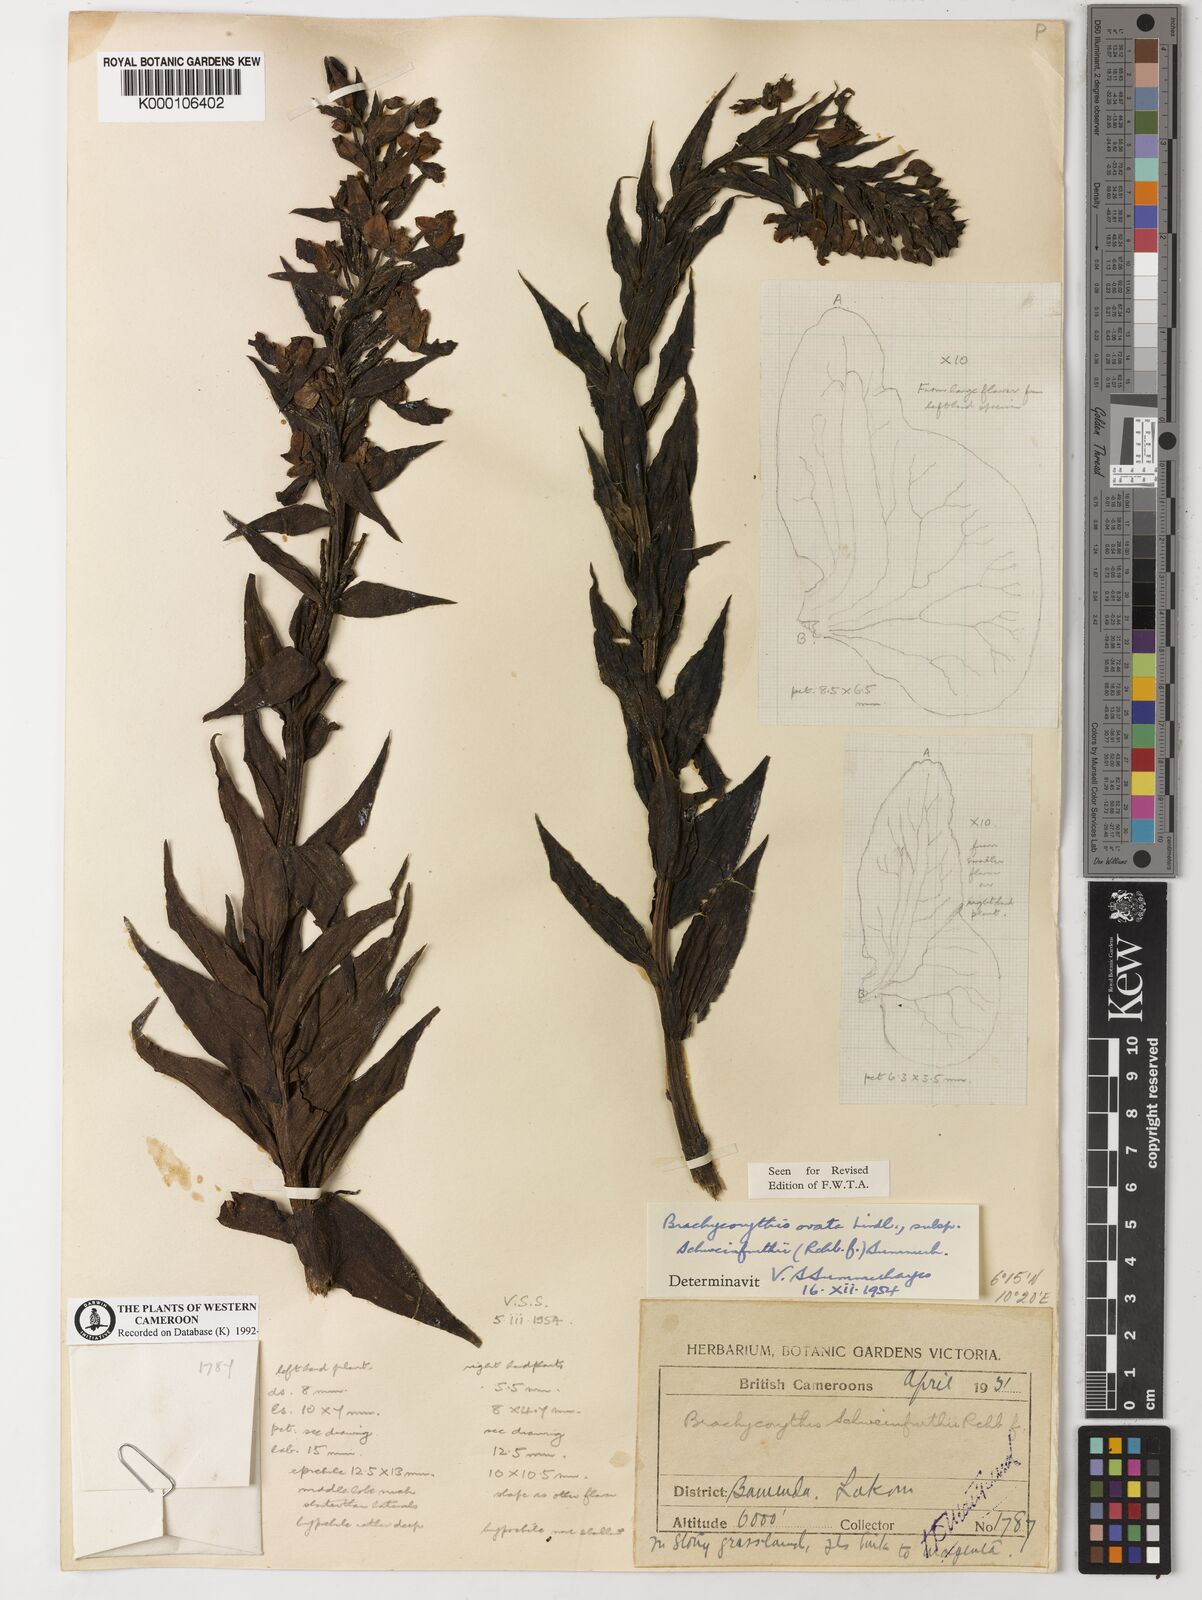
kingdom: Plantae
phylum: Tracheophyta
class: Liliopsida
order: Asparagales
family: Orchidaceae
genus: Brachycorythis
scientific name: Brachycorythis ovata
